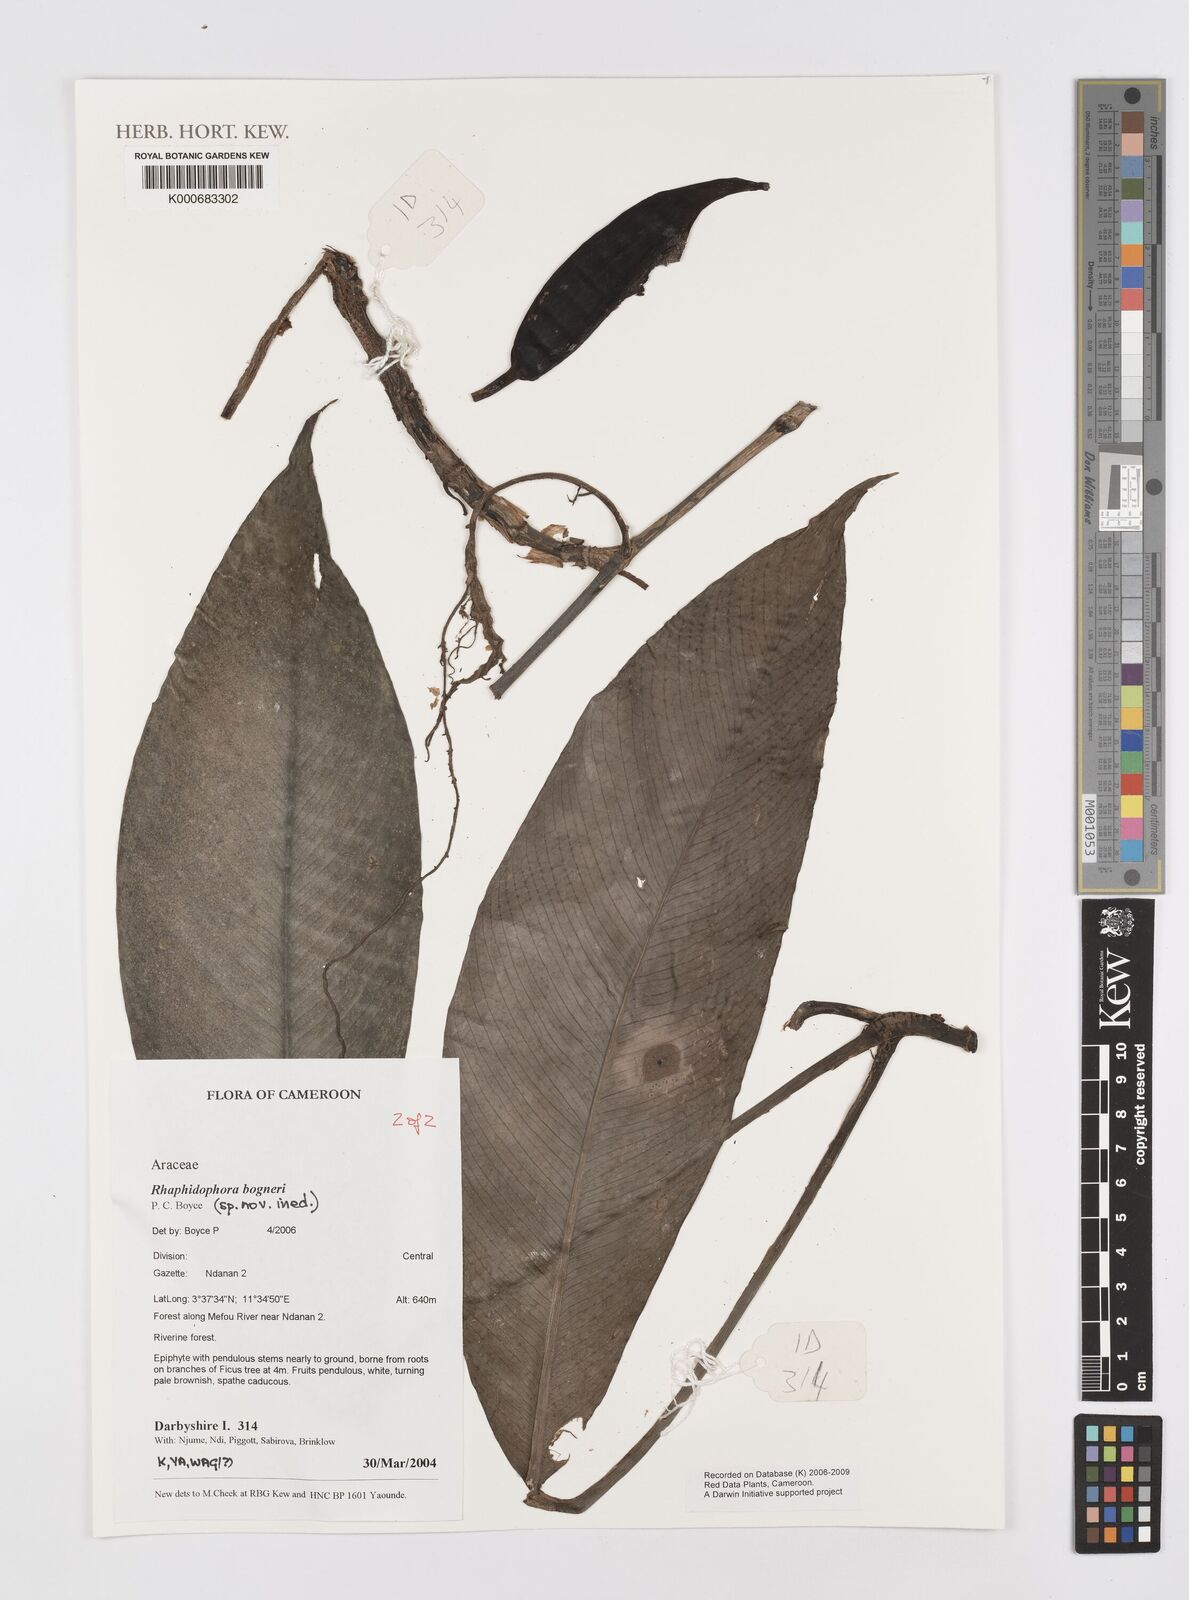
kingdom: Plantae
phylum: Tracheophyta
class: Liliopsida
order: Alismatales
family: Araceae
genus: Rhaphidophora
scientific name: Rhaphidophora bogneri
